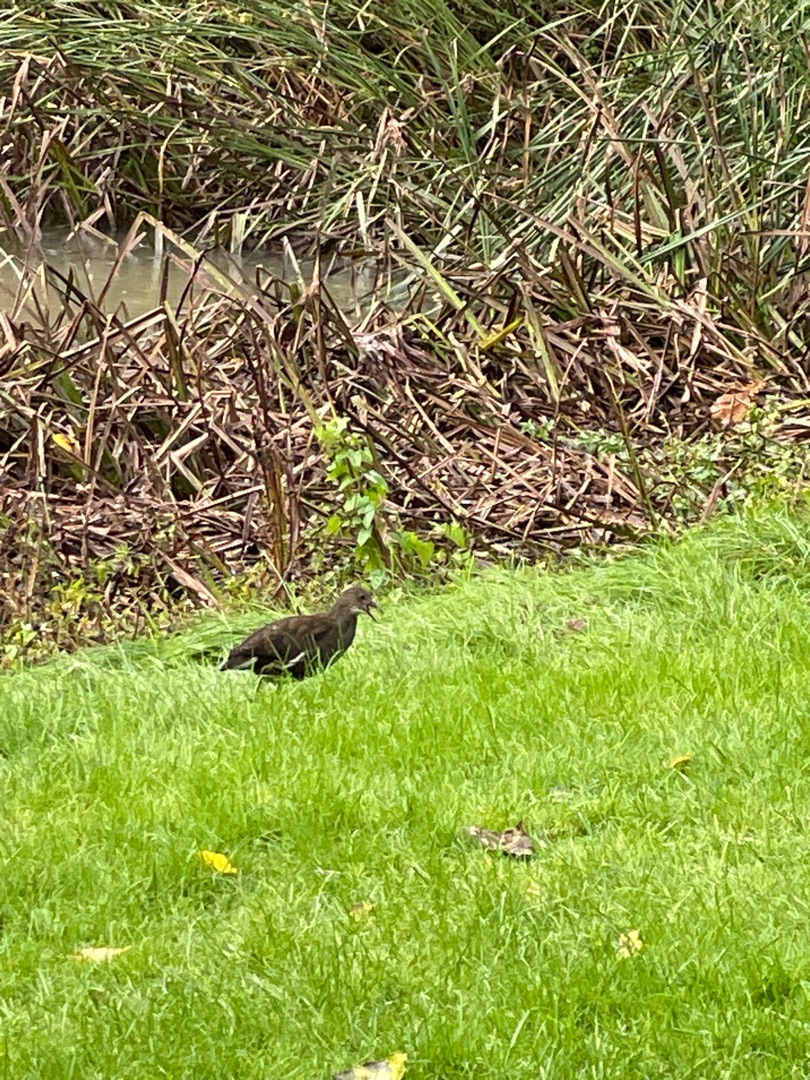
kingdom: Animalia
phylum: Chordata
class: Aves
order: Gruiformes
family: Rallidae
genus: Gallinula
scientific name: Gallinula chloropus
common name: Grønbenet rørhøne
